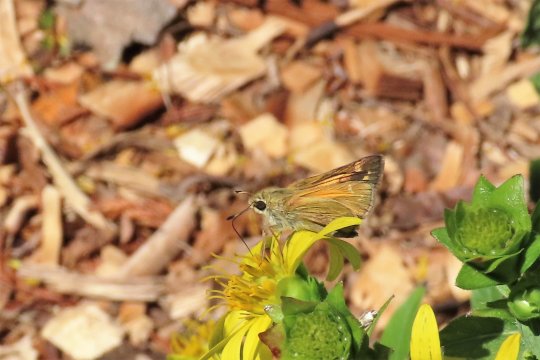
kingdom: Animalia
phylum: Arthropoda
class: Insecta
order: Lepidoptera
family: Hesperiidae
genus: Atalopedes
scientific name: Atalopedes campestris
